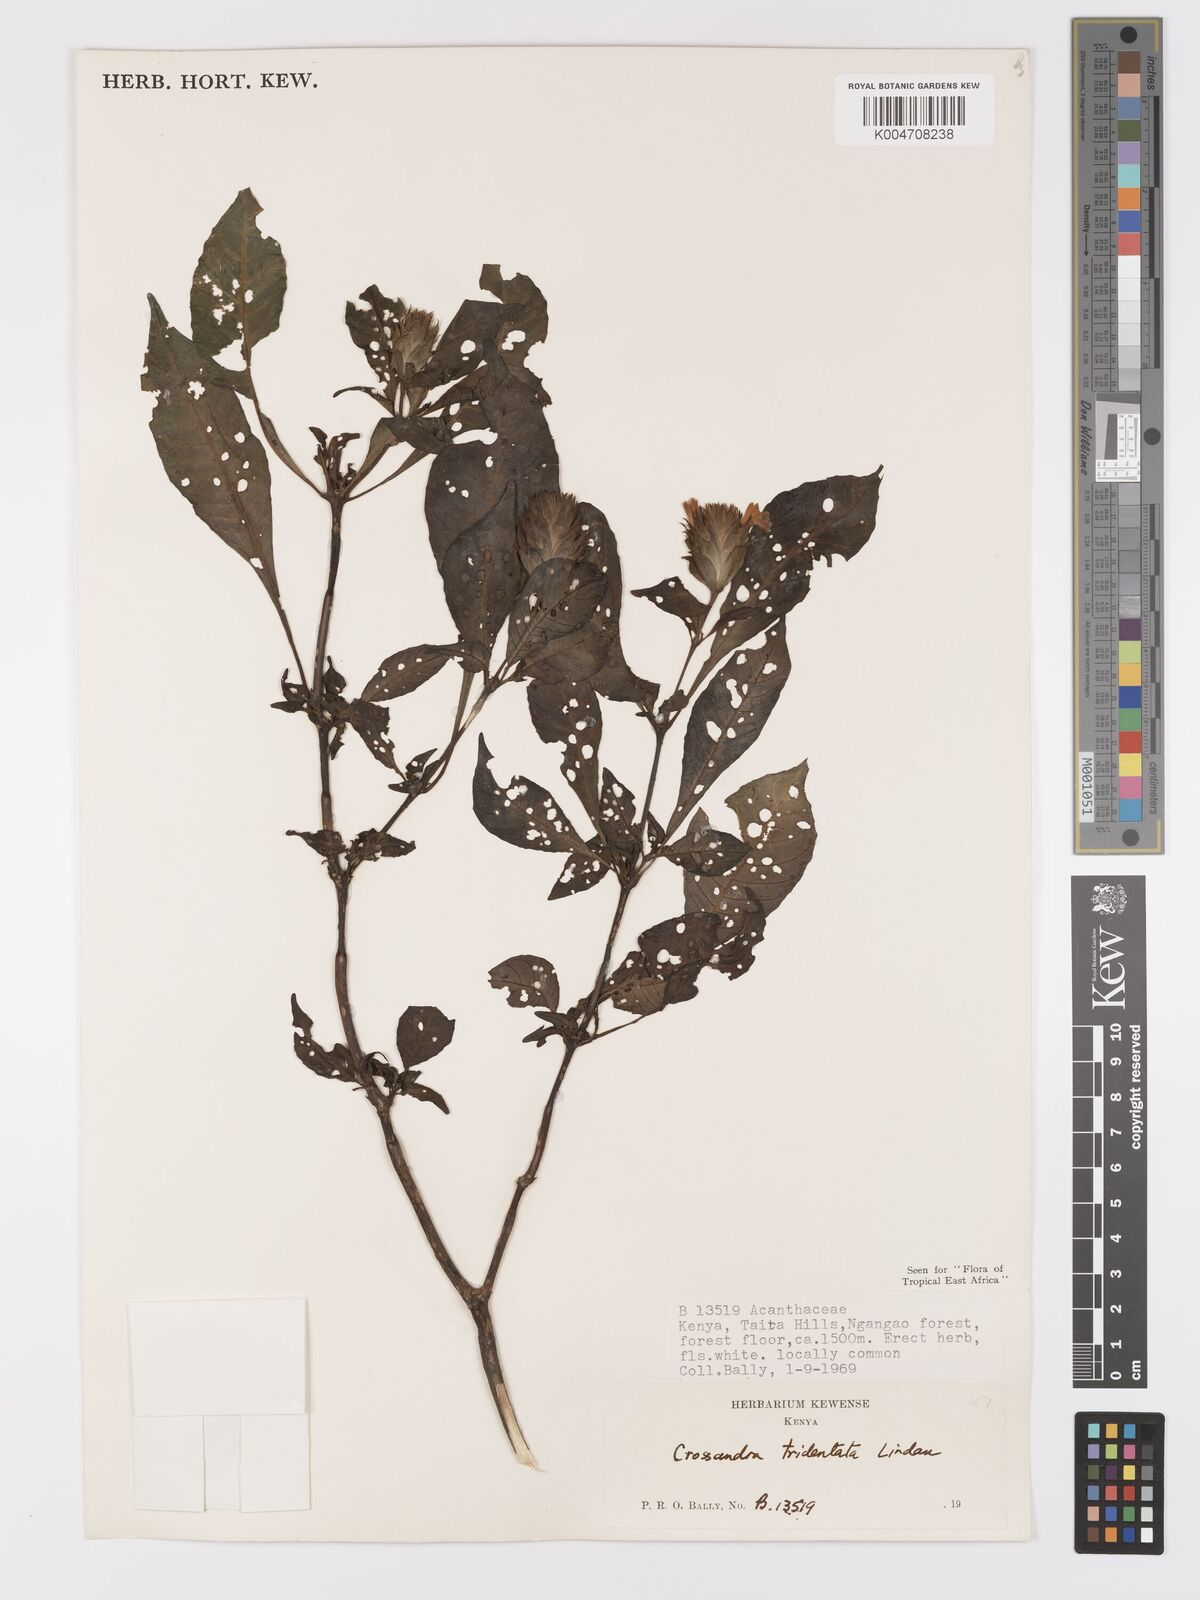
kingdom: Plantae
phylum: Tracheophyta
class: Magnoliopsida
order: Lamiales
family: Acanthaceae
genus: Crossandra
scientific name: Crossandra tridentata
